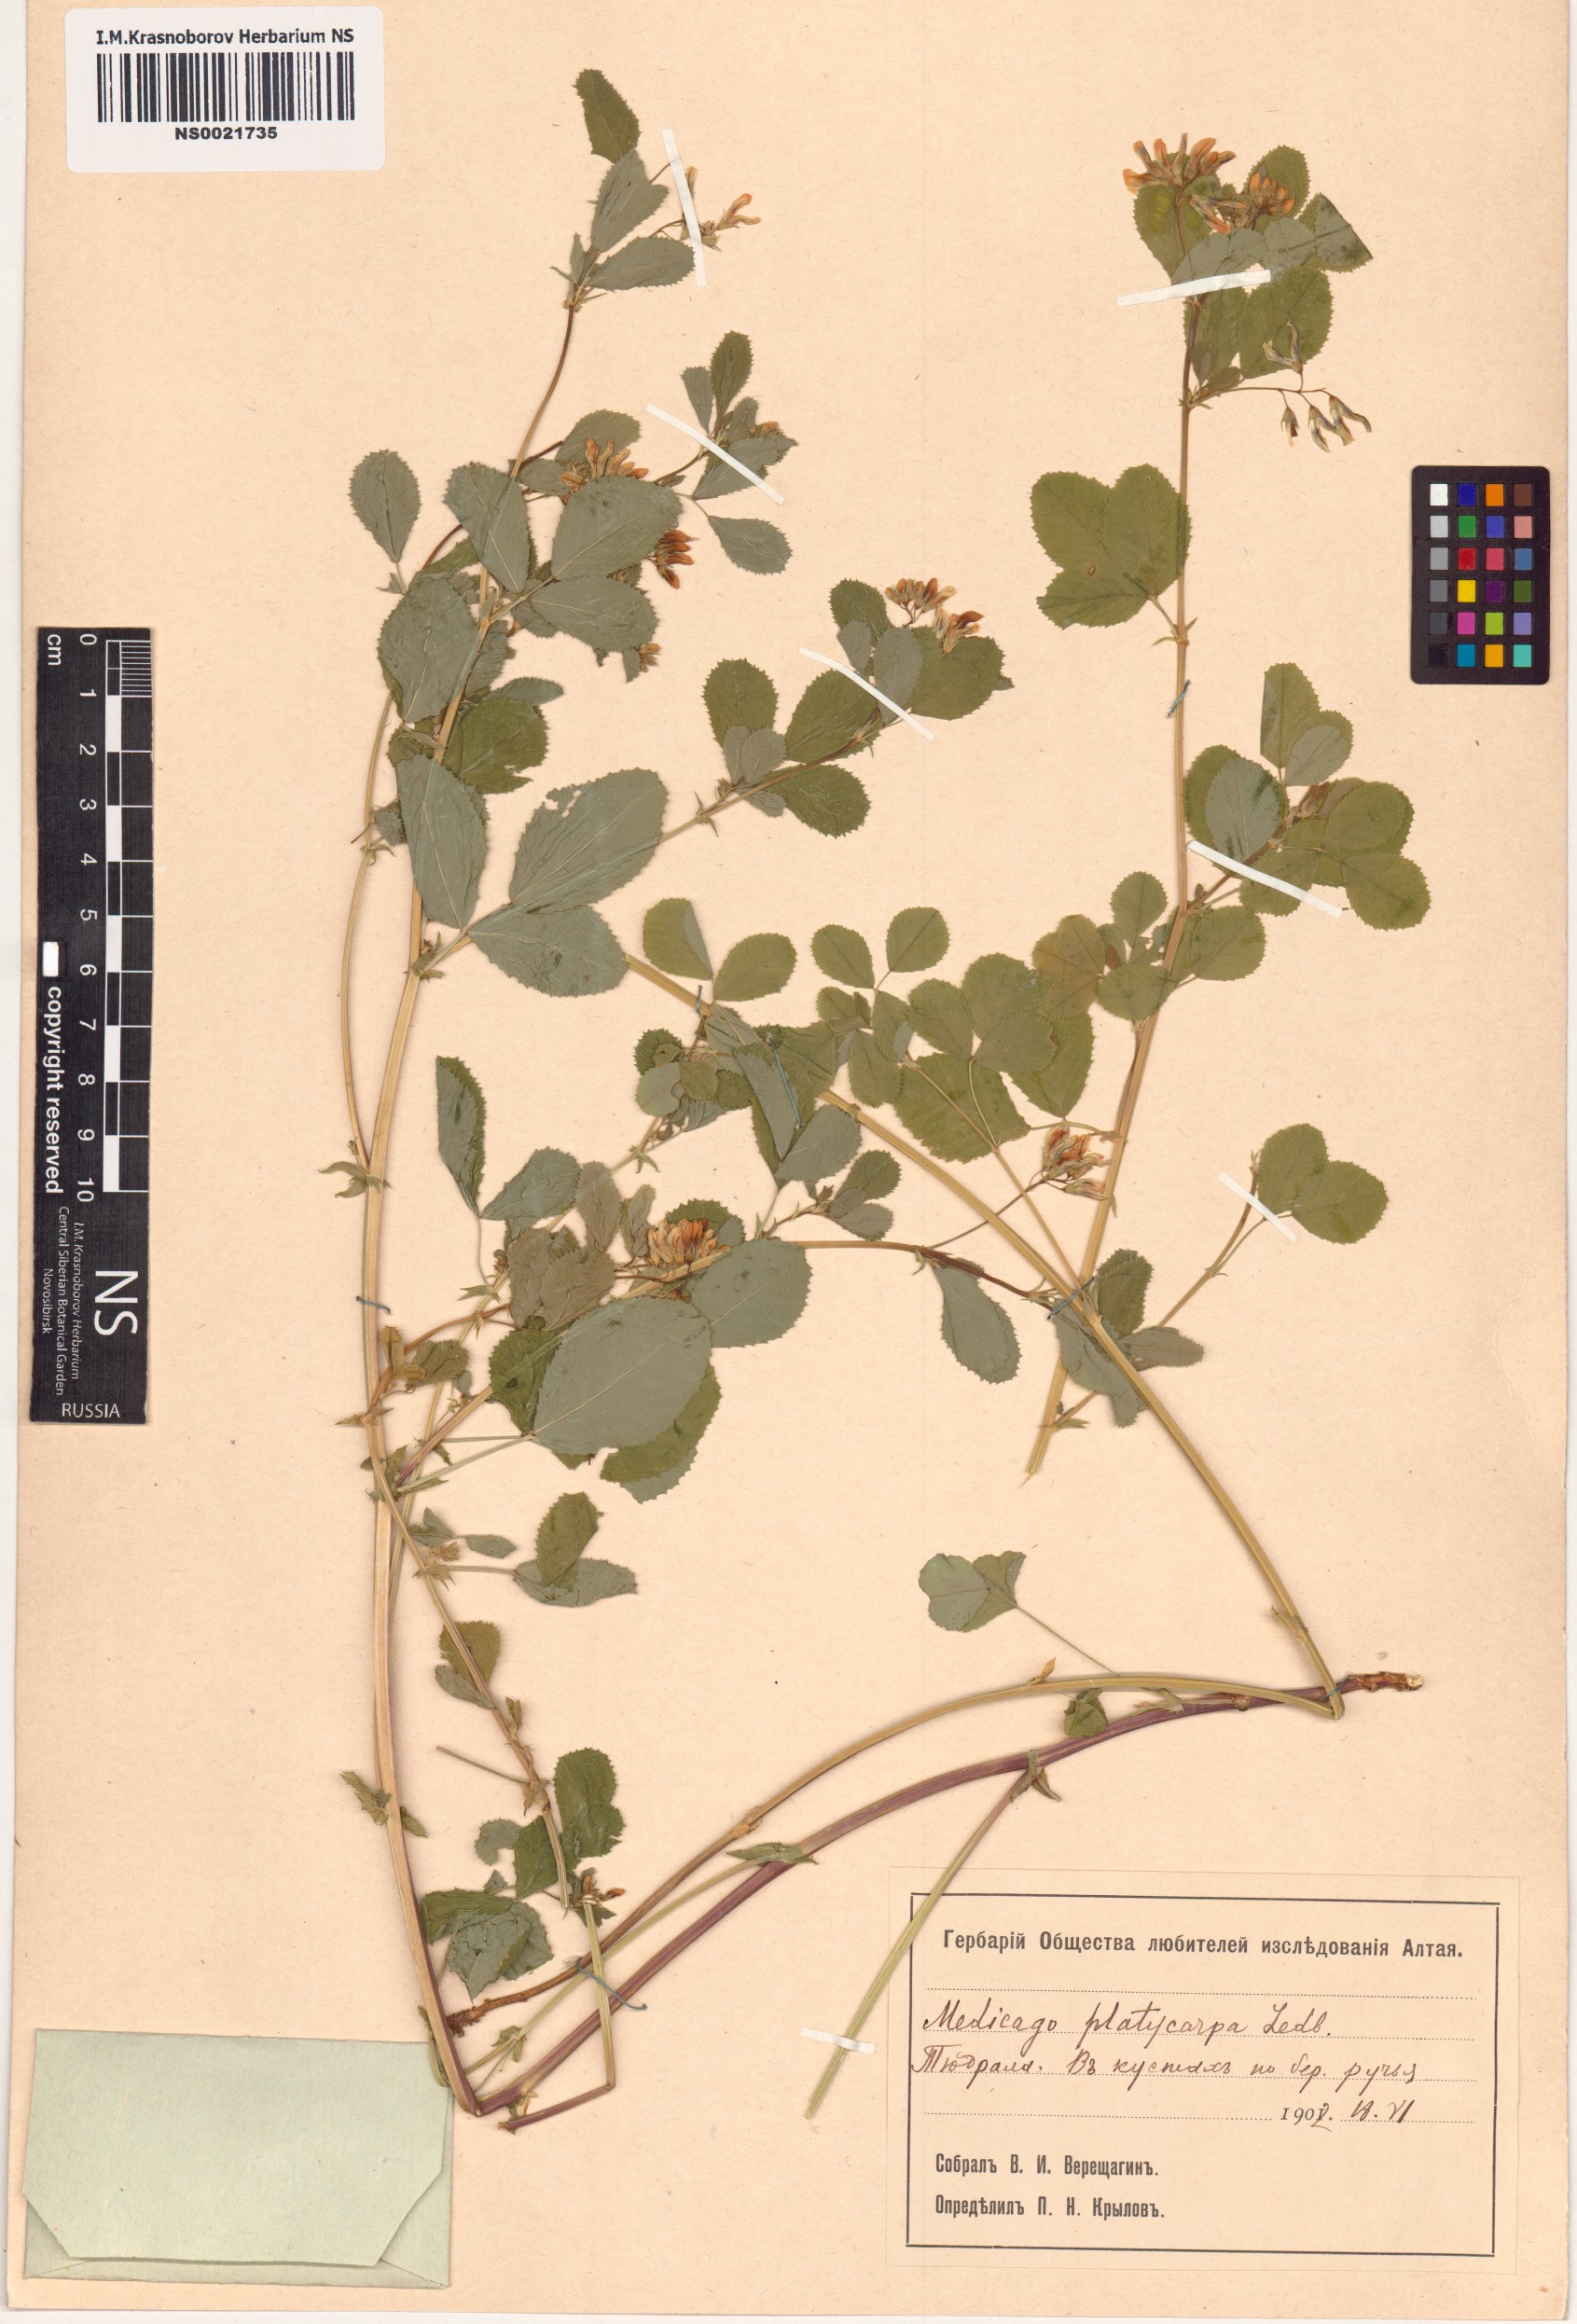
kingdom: Plantae
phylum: Tracheophyta
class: Magnoliopsida
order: Fabales
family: Fabaceae
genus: Medicago
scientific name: Medicago platycarpos
